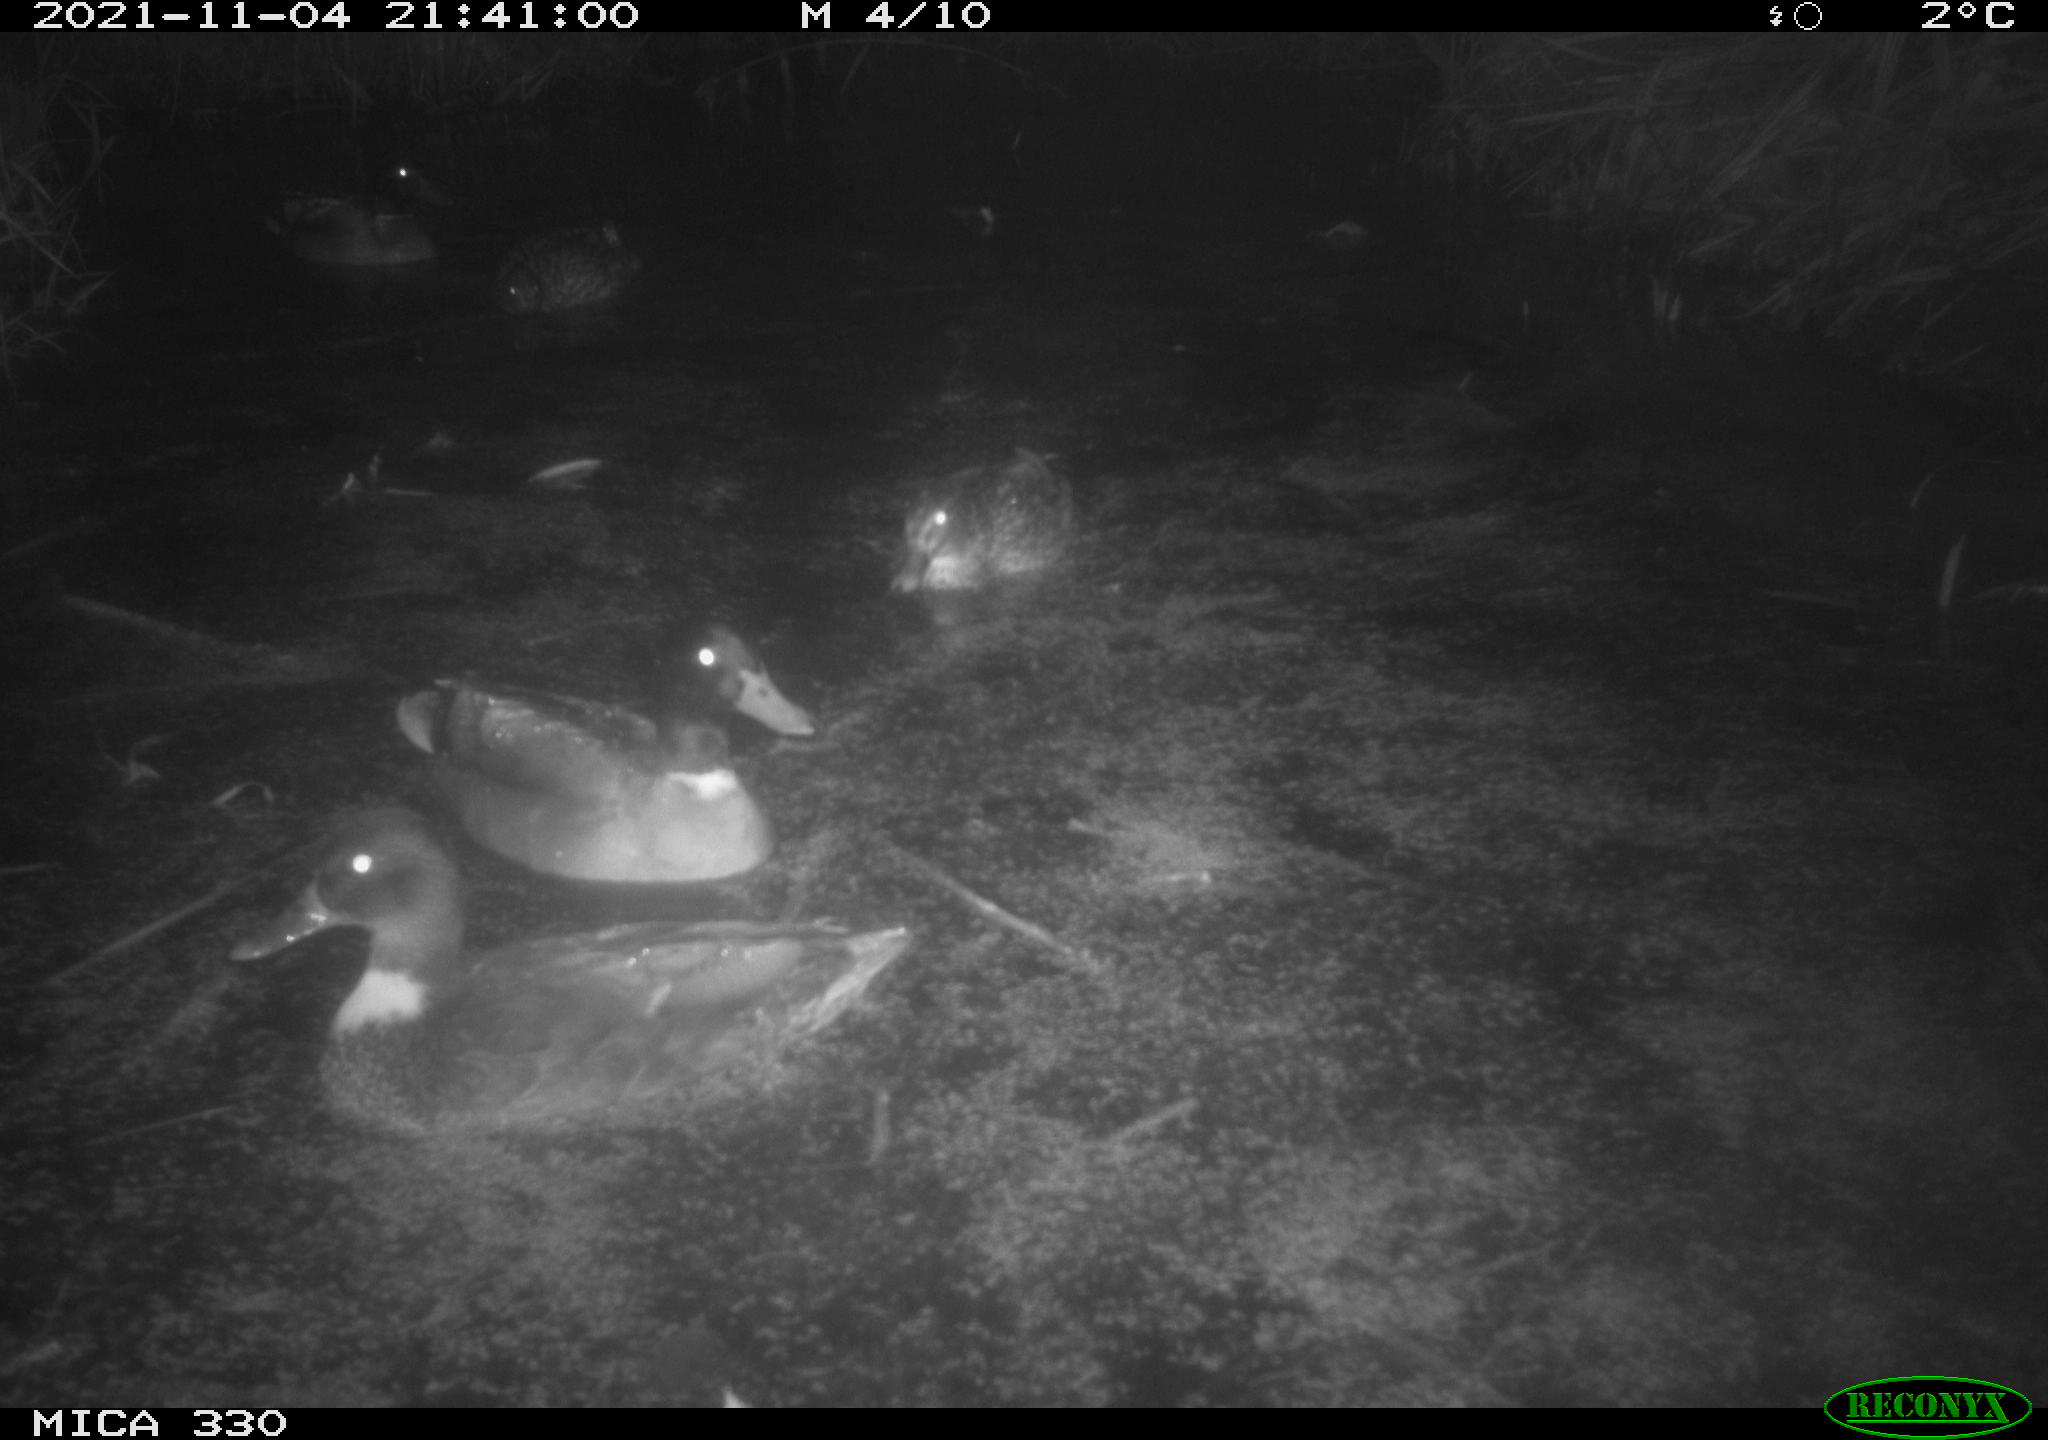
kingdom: Animalia
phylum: Chordata
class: Aves
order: Anseriformes
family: Anatidae
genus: Anas
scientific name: Anas platyrhynchos
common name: Mallard
